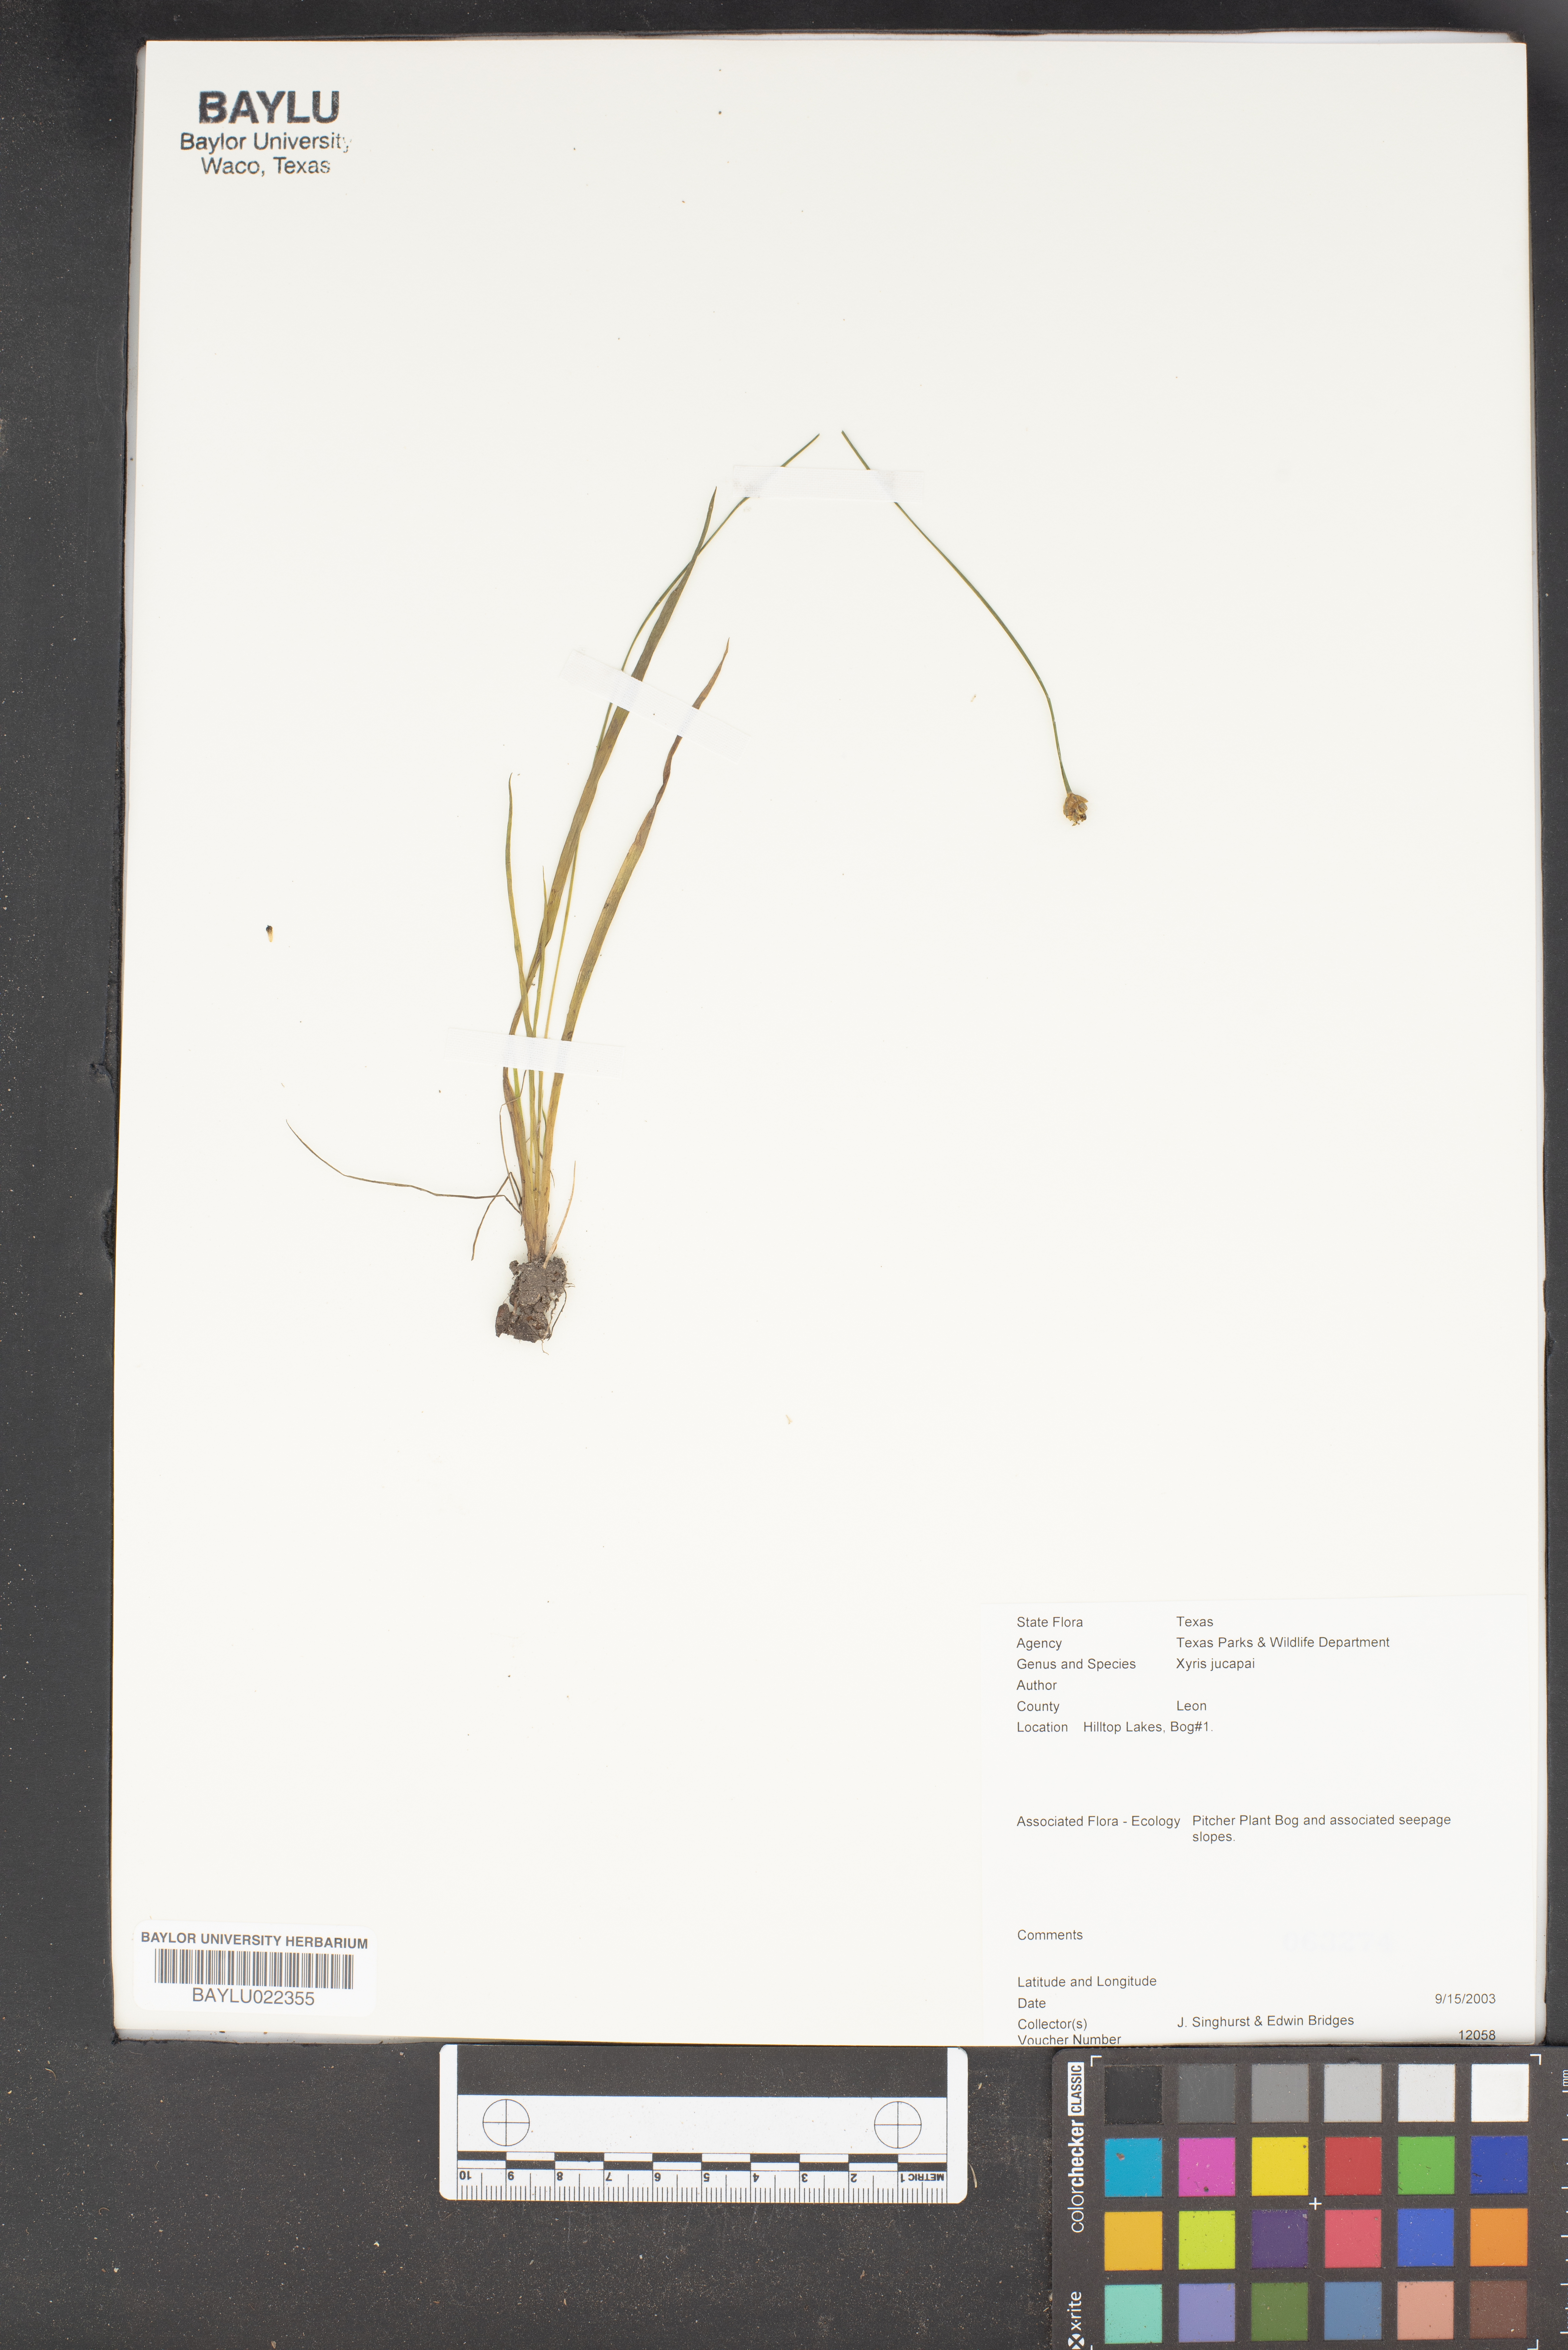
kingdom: Plantae
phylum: Tracheophyta
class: Liliopsida
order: Poales
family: Xyridaceae
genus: Xyris
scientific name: Xyris jupicai
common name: Richard's yelloweyed grass
